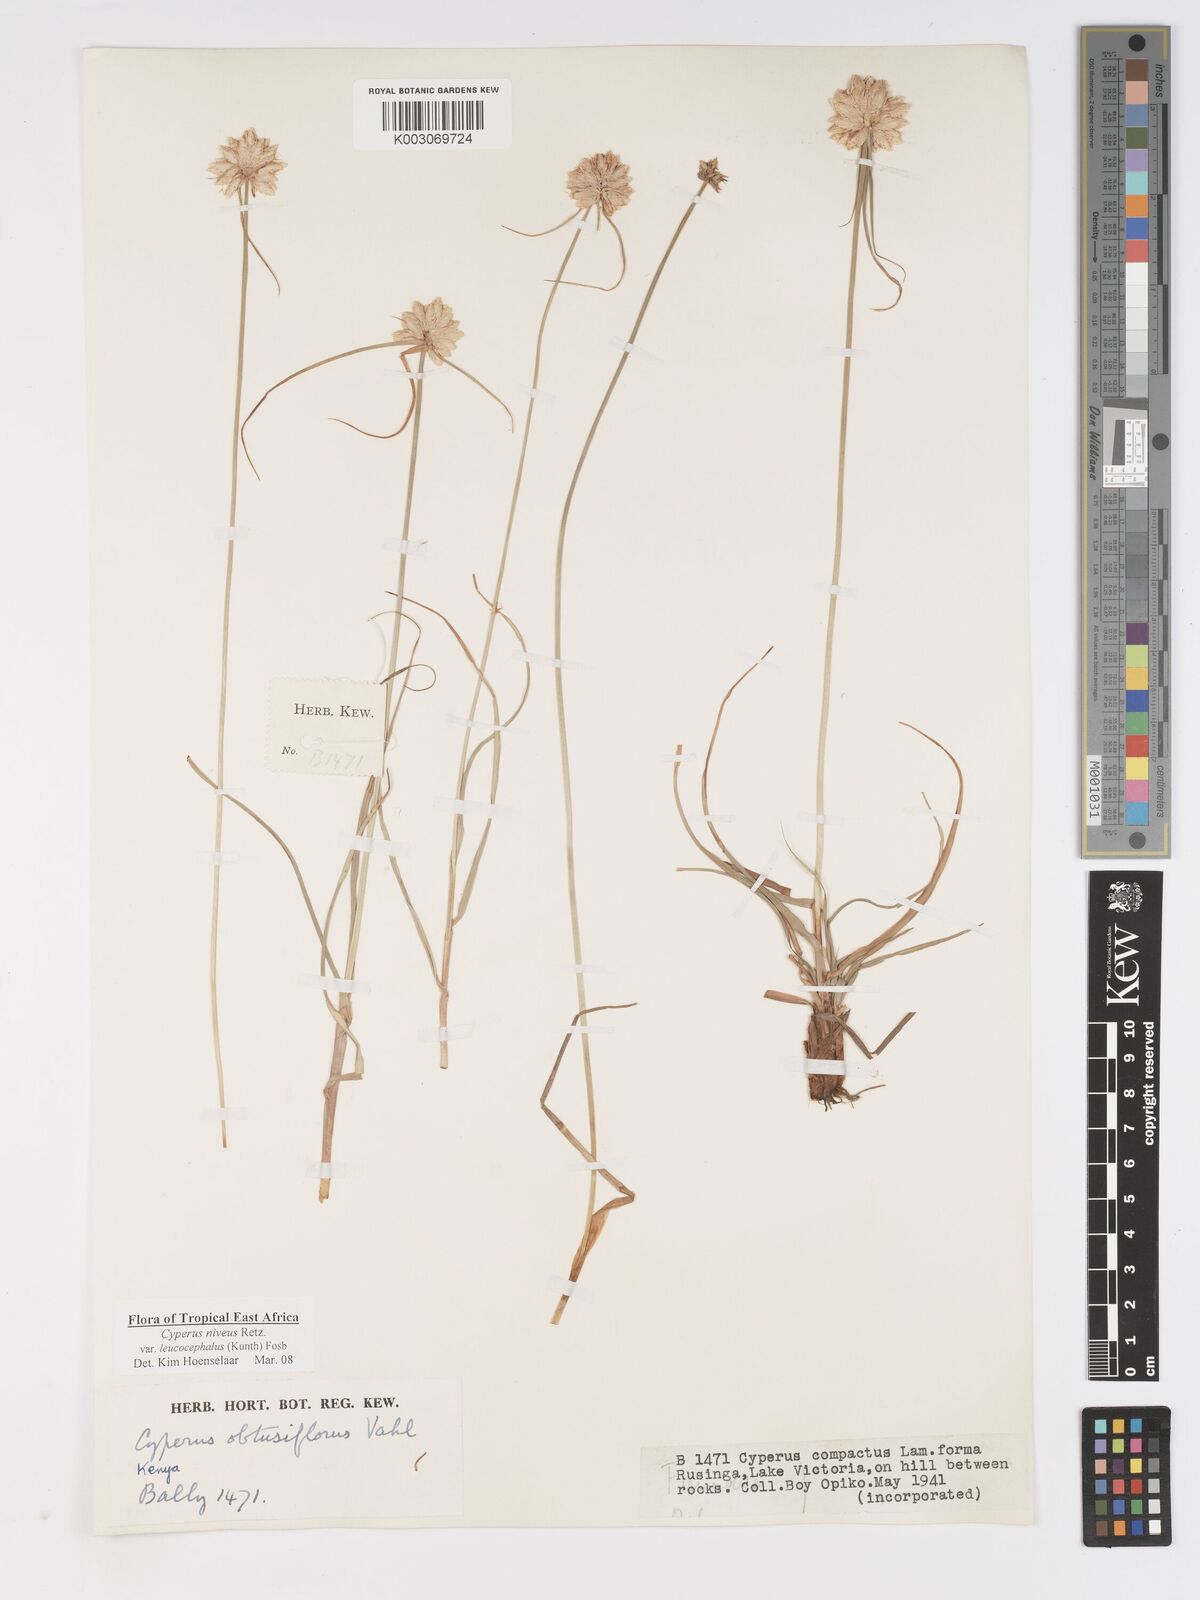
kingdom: Plantae
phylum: Tracheophyta
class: Liliopsida
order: Poales
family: Cyperaceae
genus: Cyperus
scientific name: Cyperus niveus
